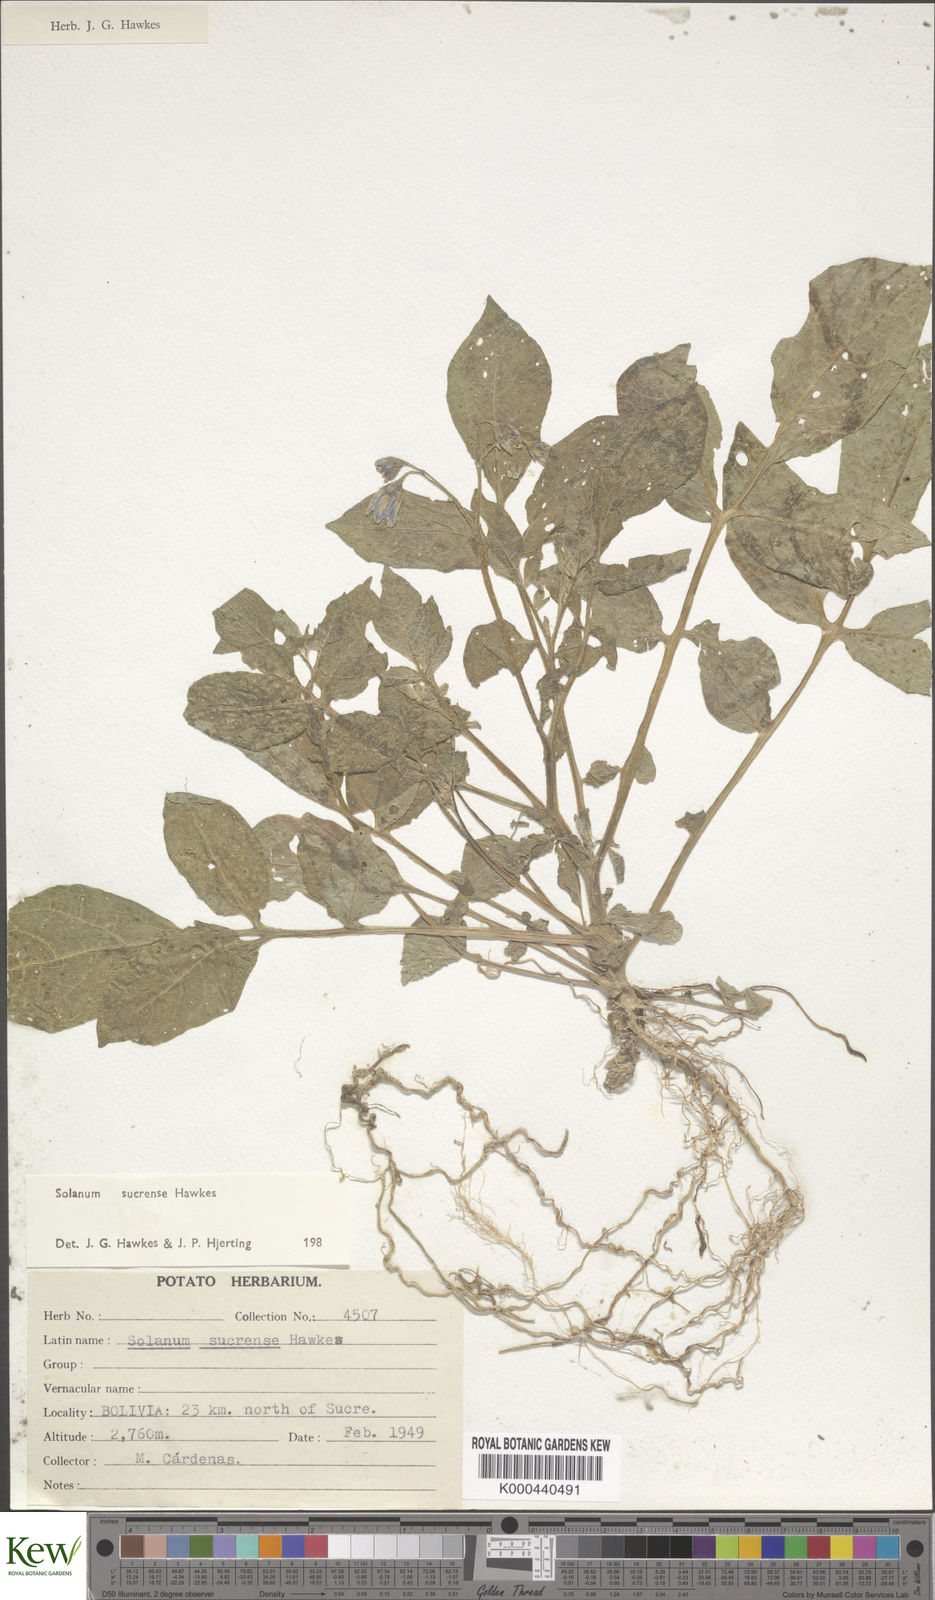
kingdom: Plantae
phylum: Tracheophyta
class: Magnoliopsida
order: Solanales
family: Solanaceae
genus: Solanum
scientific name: Solanum brevicaule
